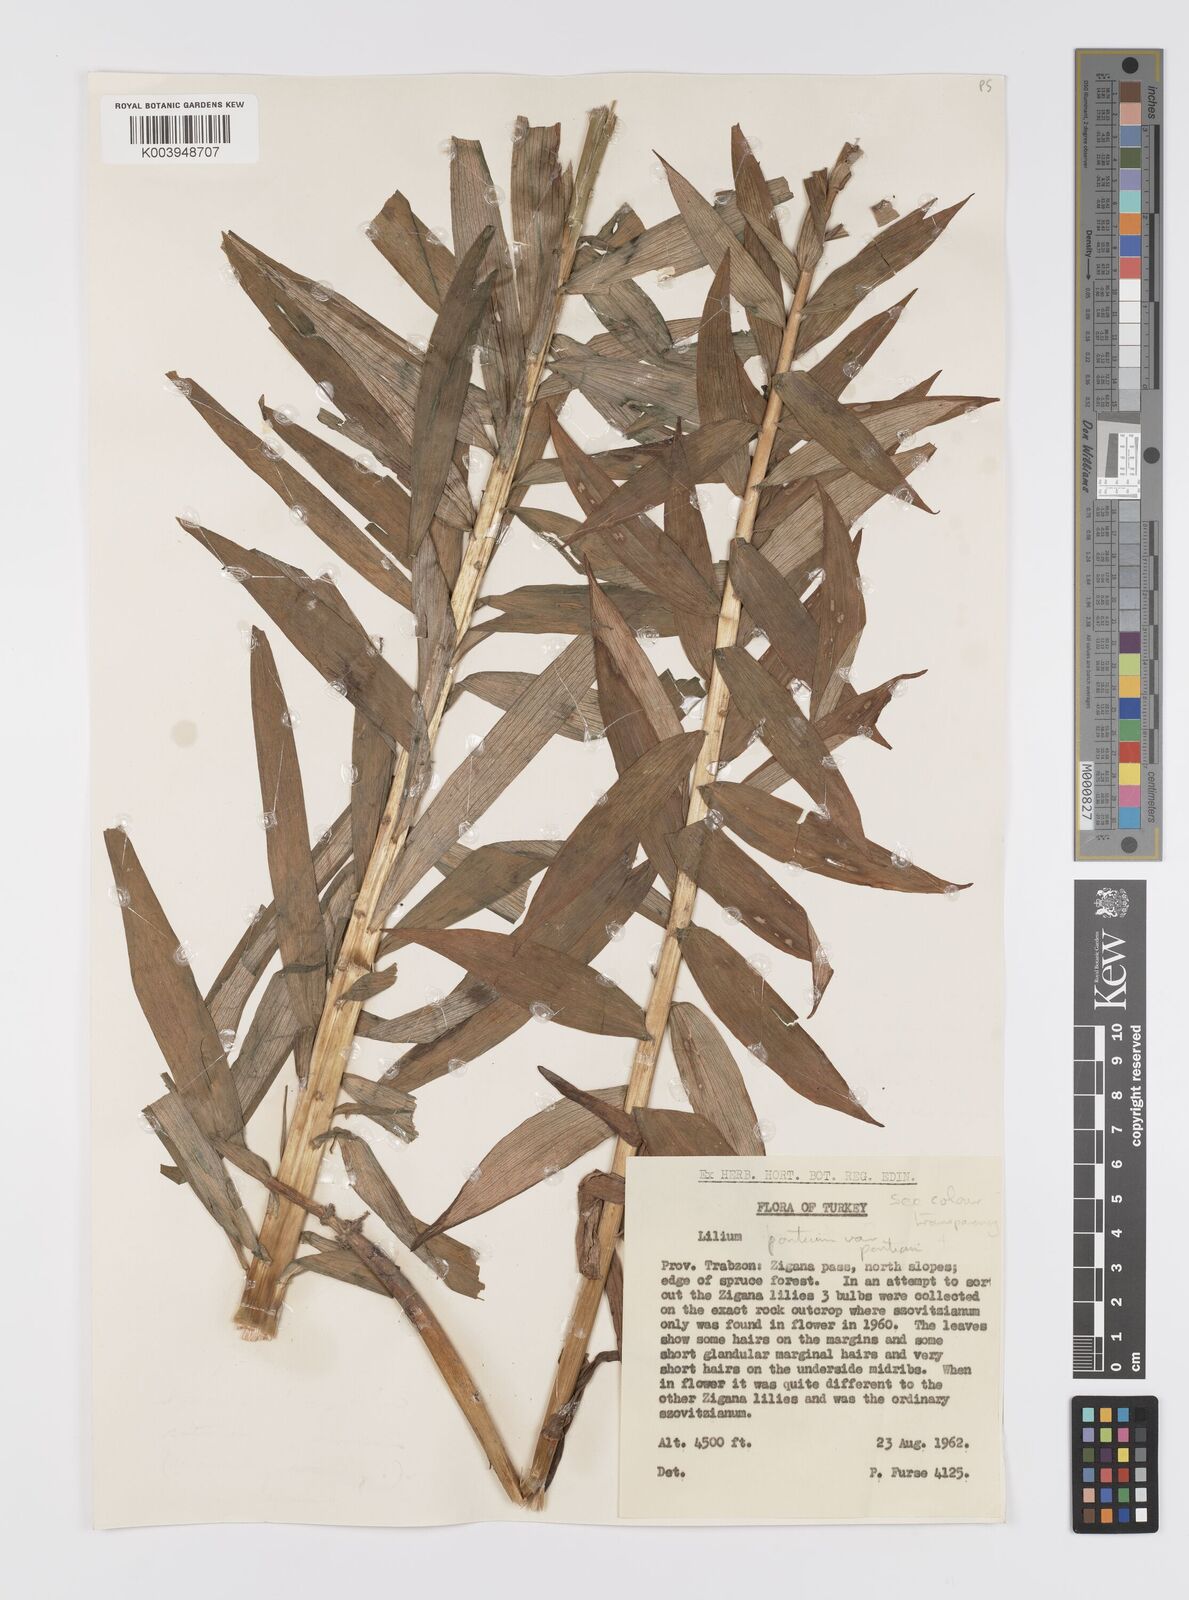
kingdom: Plantae
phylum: Tracheophyta
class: Liliopsida
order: Liliales
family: Liliaceae
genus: Lilium
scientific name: Lilium ponticum
